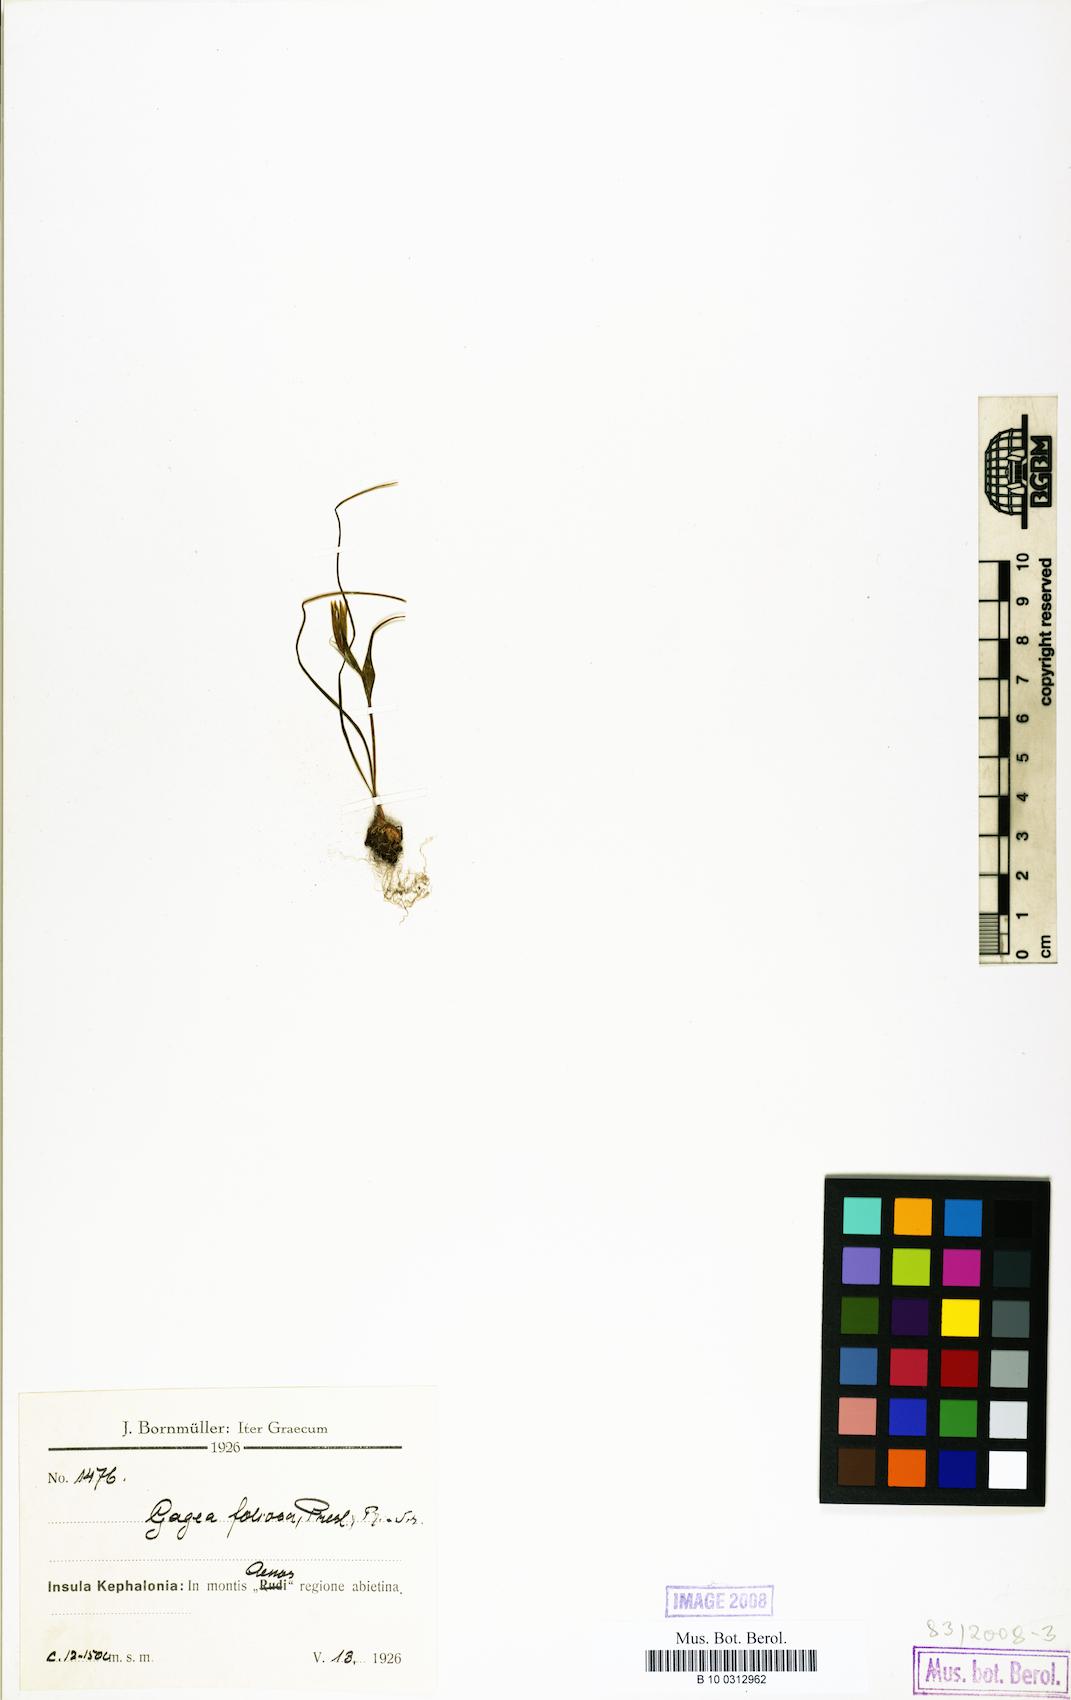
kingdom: Plantae
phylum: Tracheophyta
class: Liliopsida
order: Liliales
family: Liliaceae
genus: Gagea
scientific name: Gagea bohemica
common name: Early star-of-bethlehem
